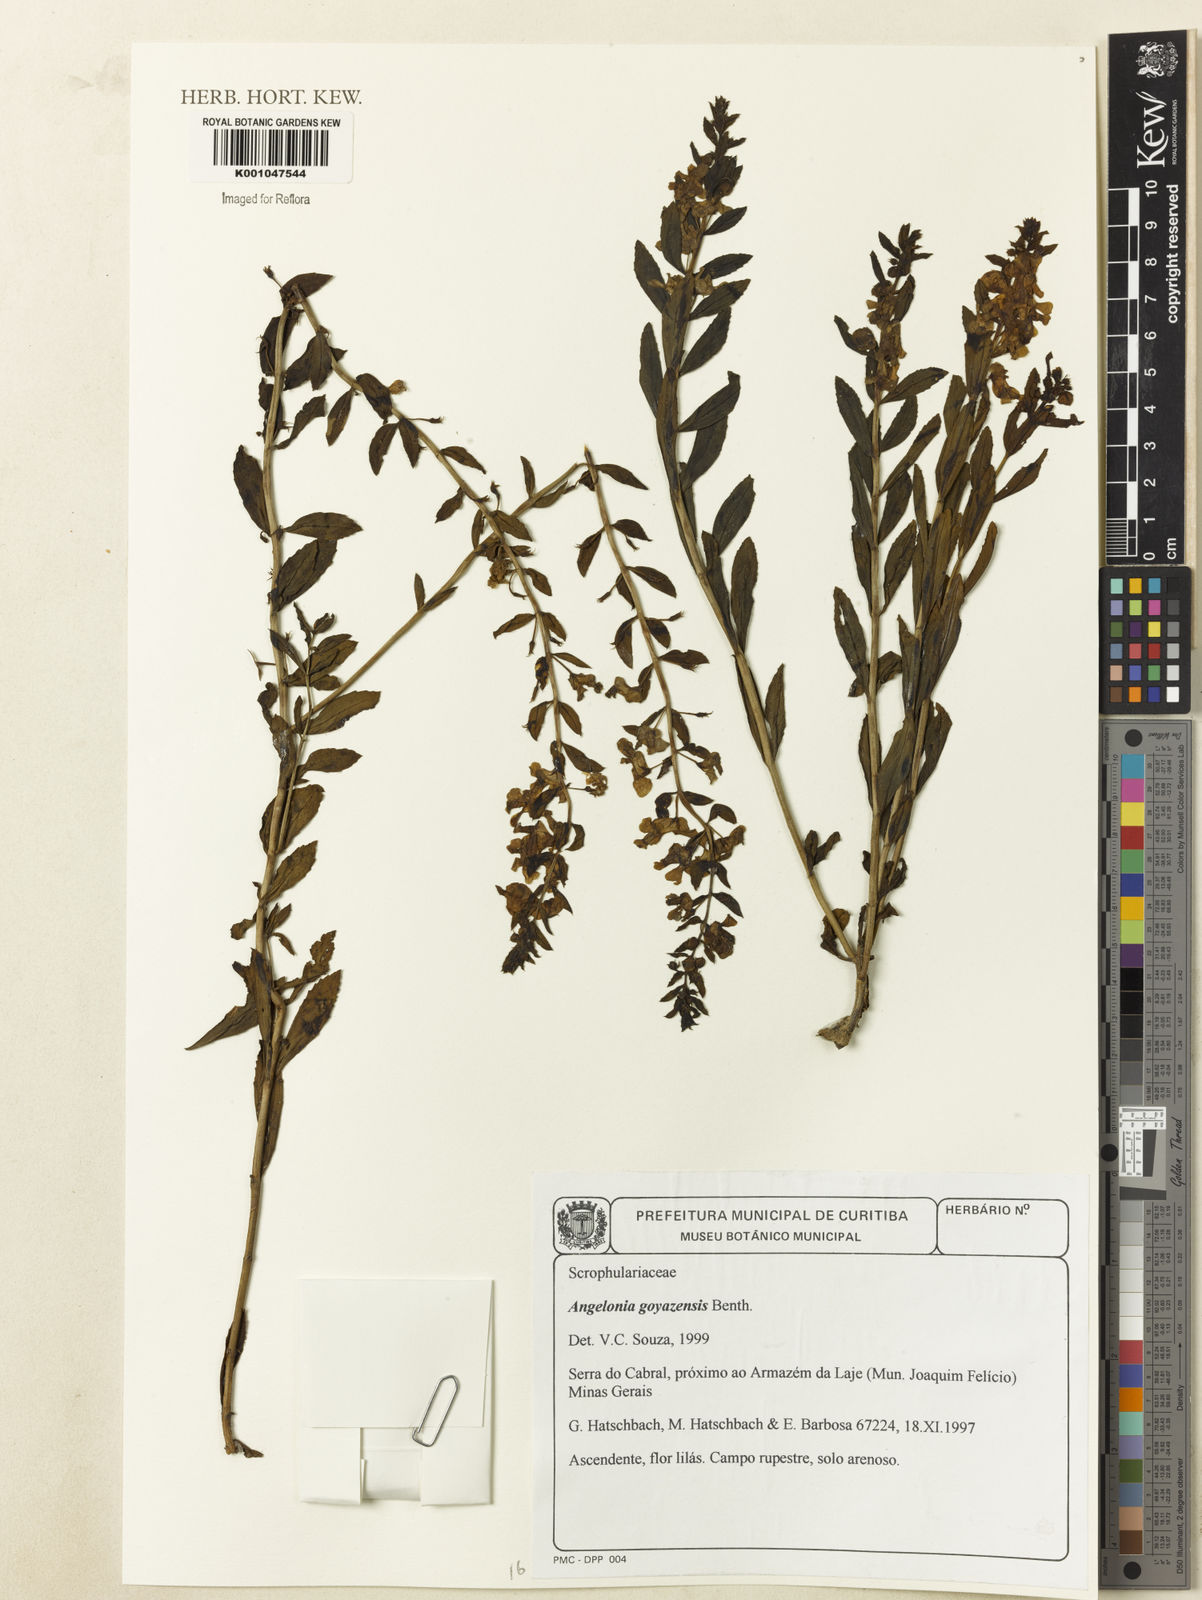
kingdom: Plantae
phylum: Tracheophyta
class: Magnoliopsida
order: Lamiales
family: Plantaginaceae
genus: Angelonia
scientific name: Angelonia goyazensis
